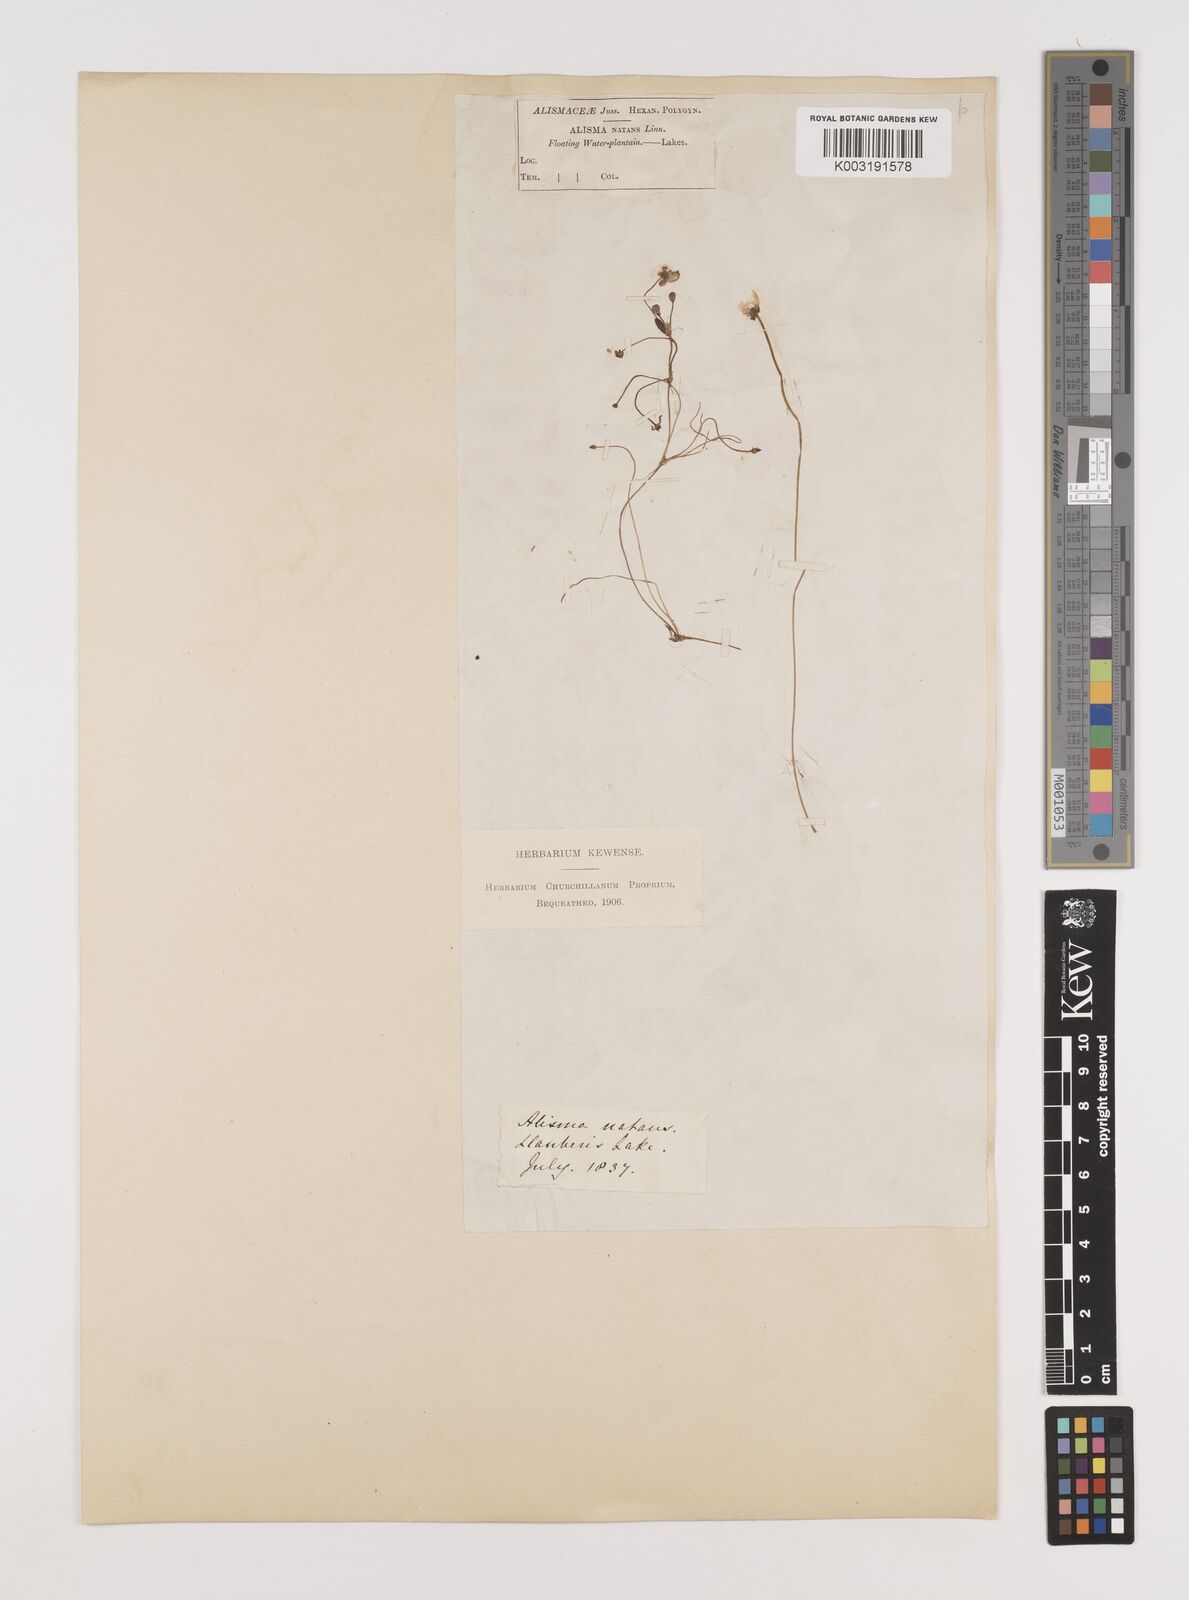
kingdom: Plantae
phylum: Tracheophyta
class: Liliopsida
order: Alismatales
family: Alismataceae
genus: Luronium
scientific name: Luronium natans
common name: Floating water-plantain
